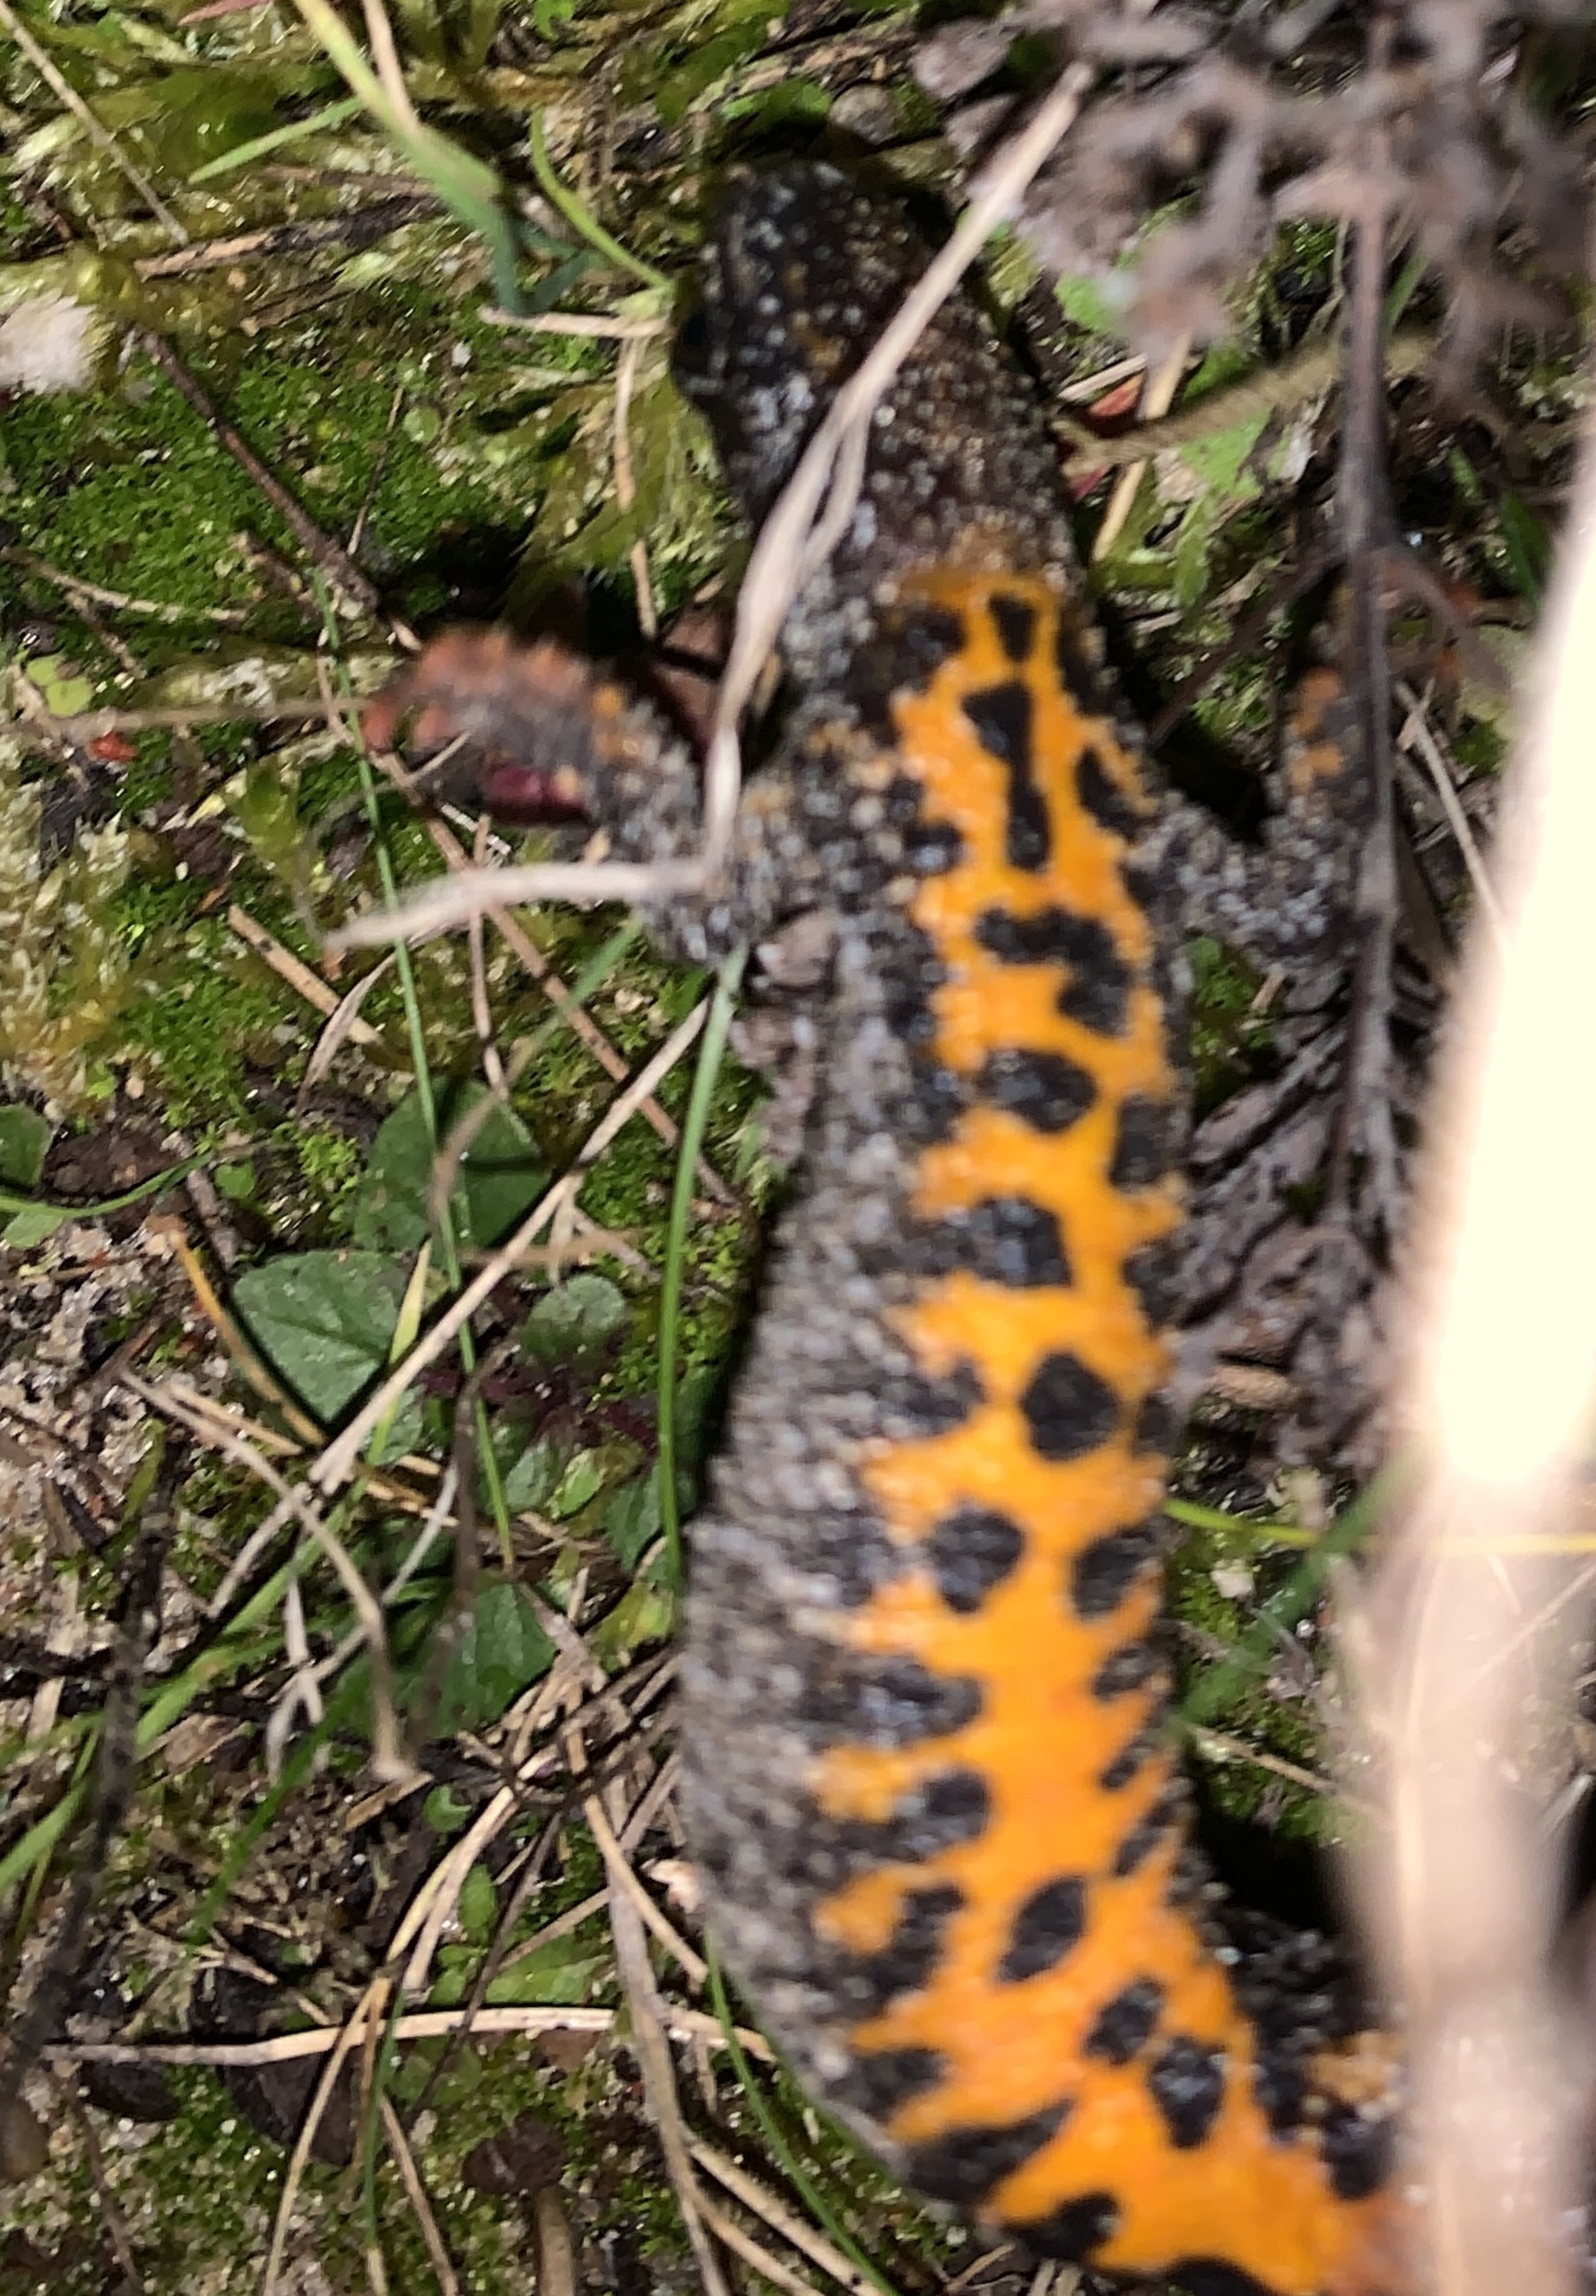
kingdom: Animalia
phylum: Chordata
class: Amphibia
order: Caudata
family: Salamandridae
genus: Triturus
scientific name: Triturus cristatus
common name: Stor vandsalamander
